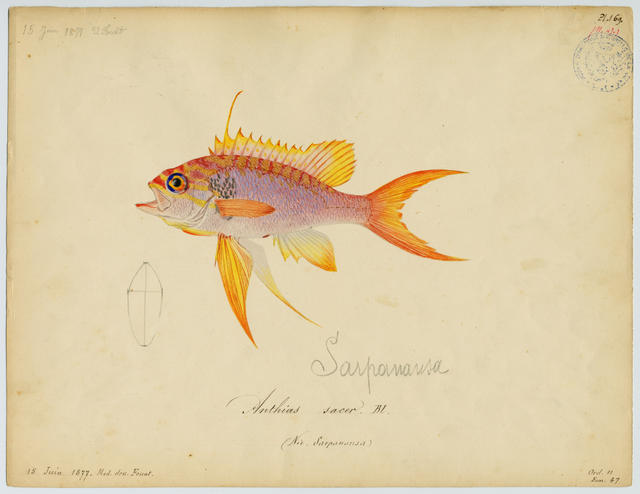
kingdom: Animalia
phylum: Chordata
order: Perciformes
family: Serranidae
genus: Anthias
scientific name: Anthias anthias
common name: Swallowtail seaperch
